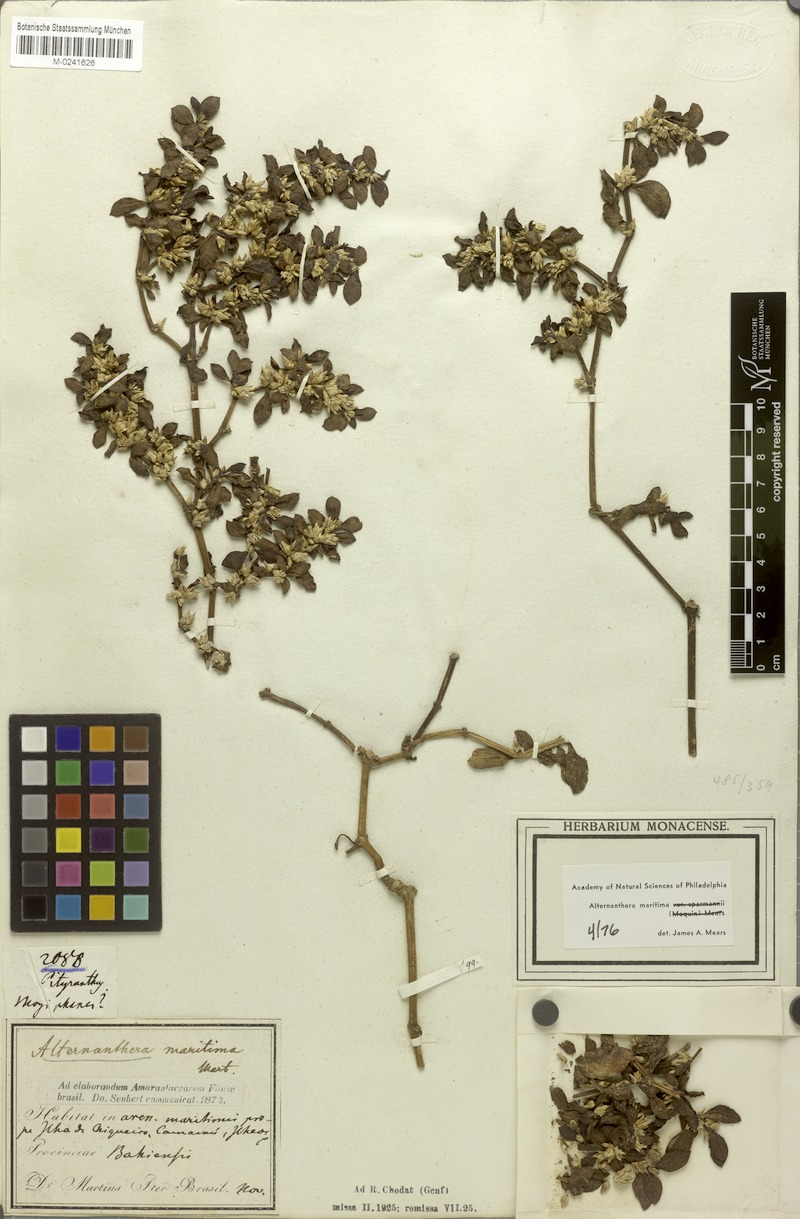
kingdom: Plantae
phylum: Tracheophyta
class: Magnoliopsida
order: Caryophyllales
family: Amaranthaceae
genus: Alternanthera
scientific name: Alternanthera littoralis
